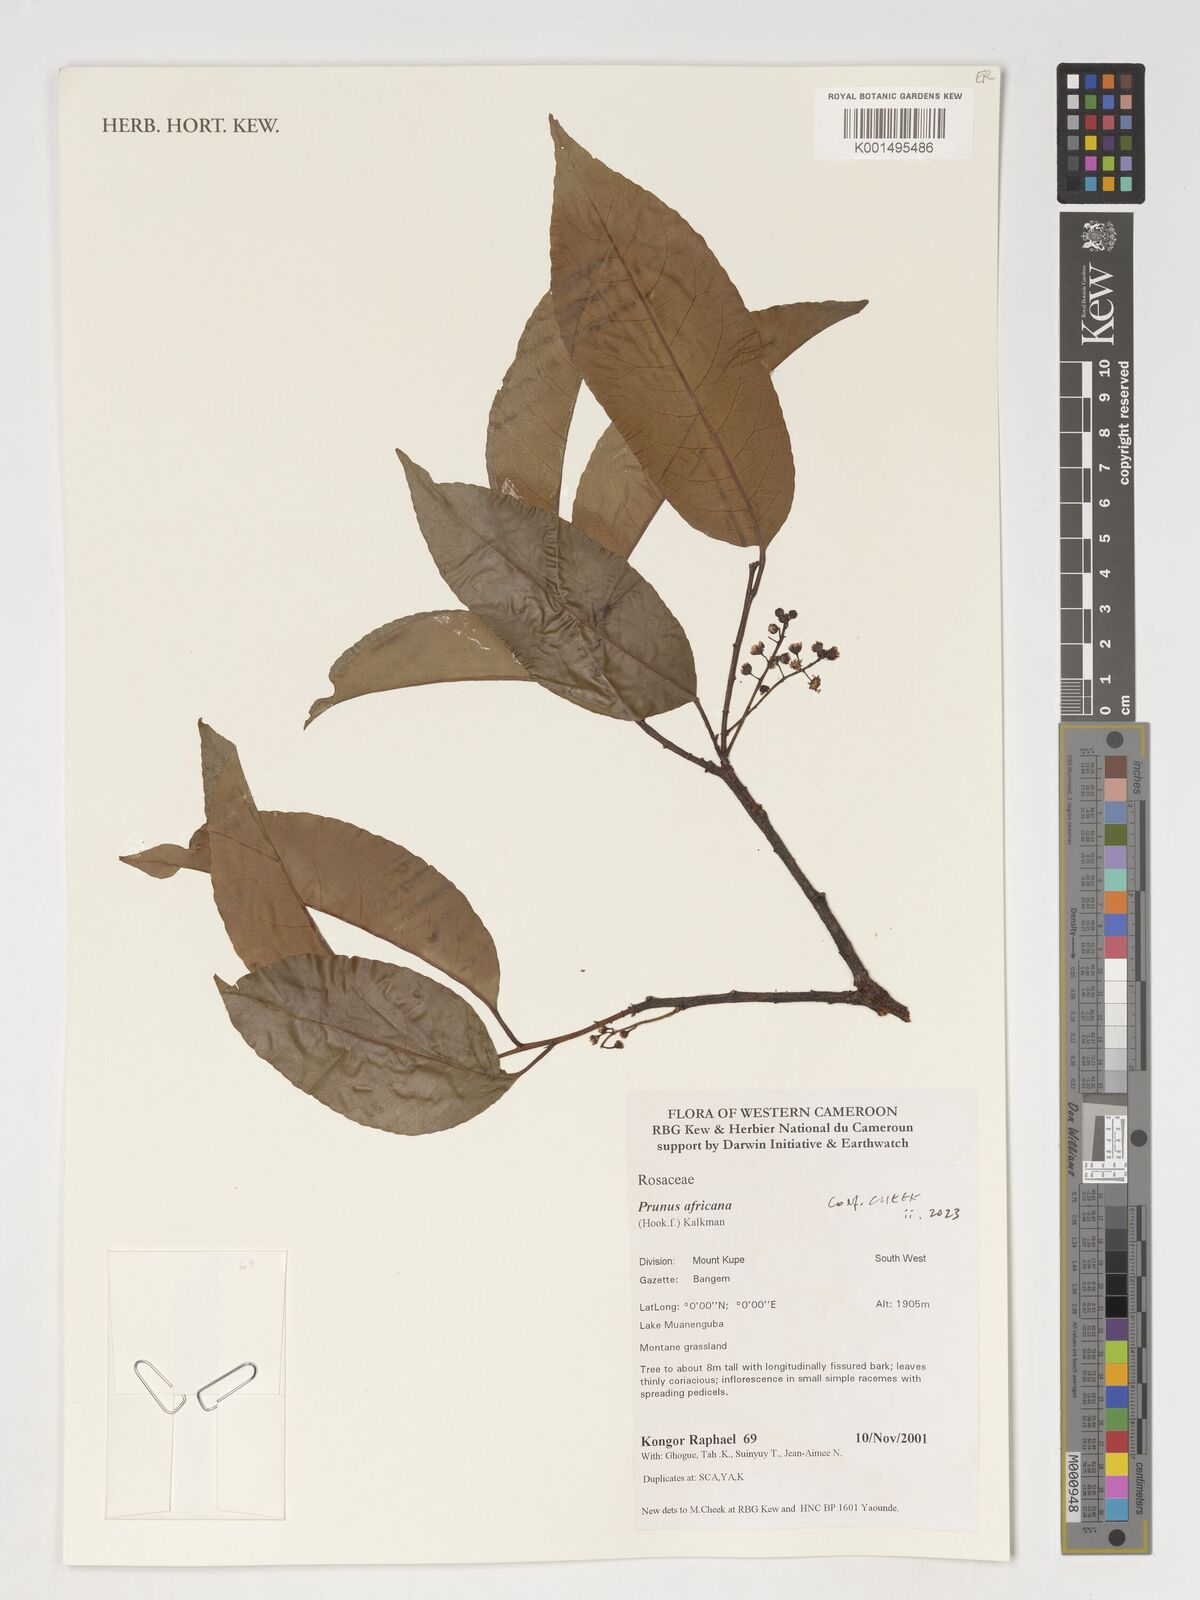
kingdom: Plantae
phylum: Tracheophyta
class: Magnoliopsida
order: Rosales
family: Rosaceae
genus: Prunus
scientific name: Prunus africana
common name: African cherry
